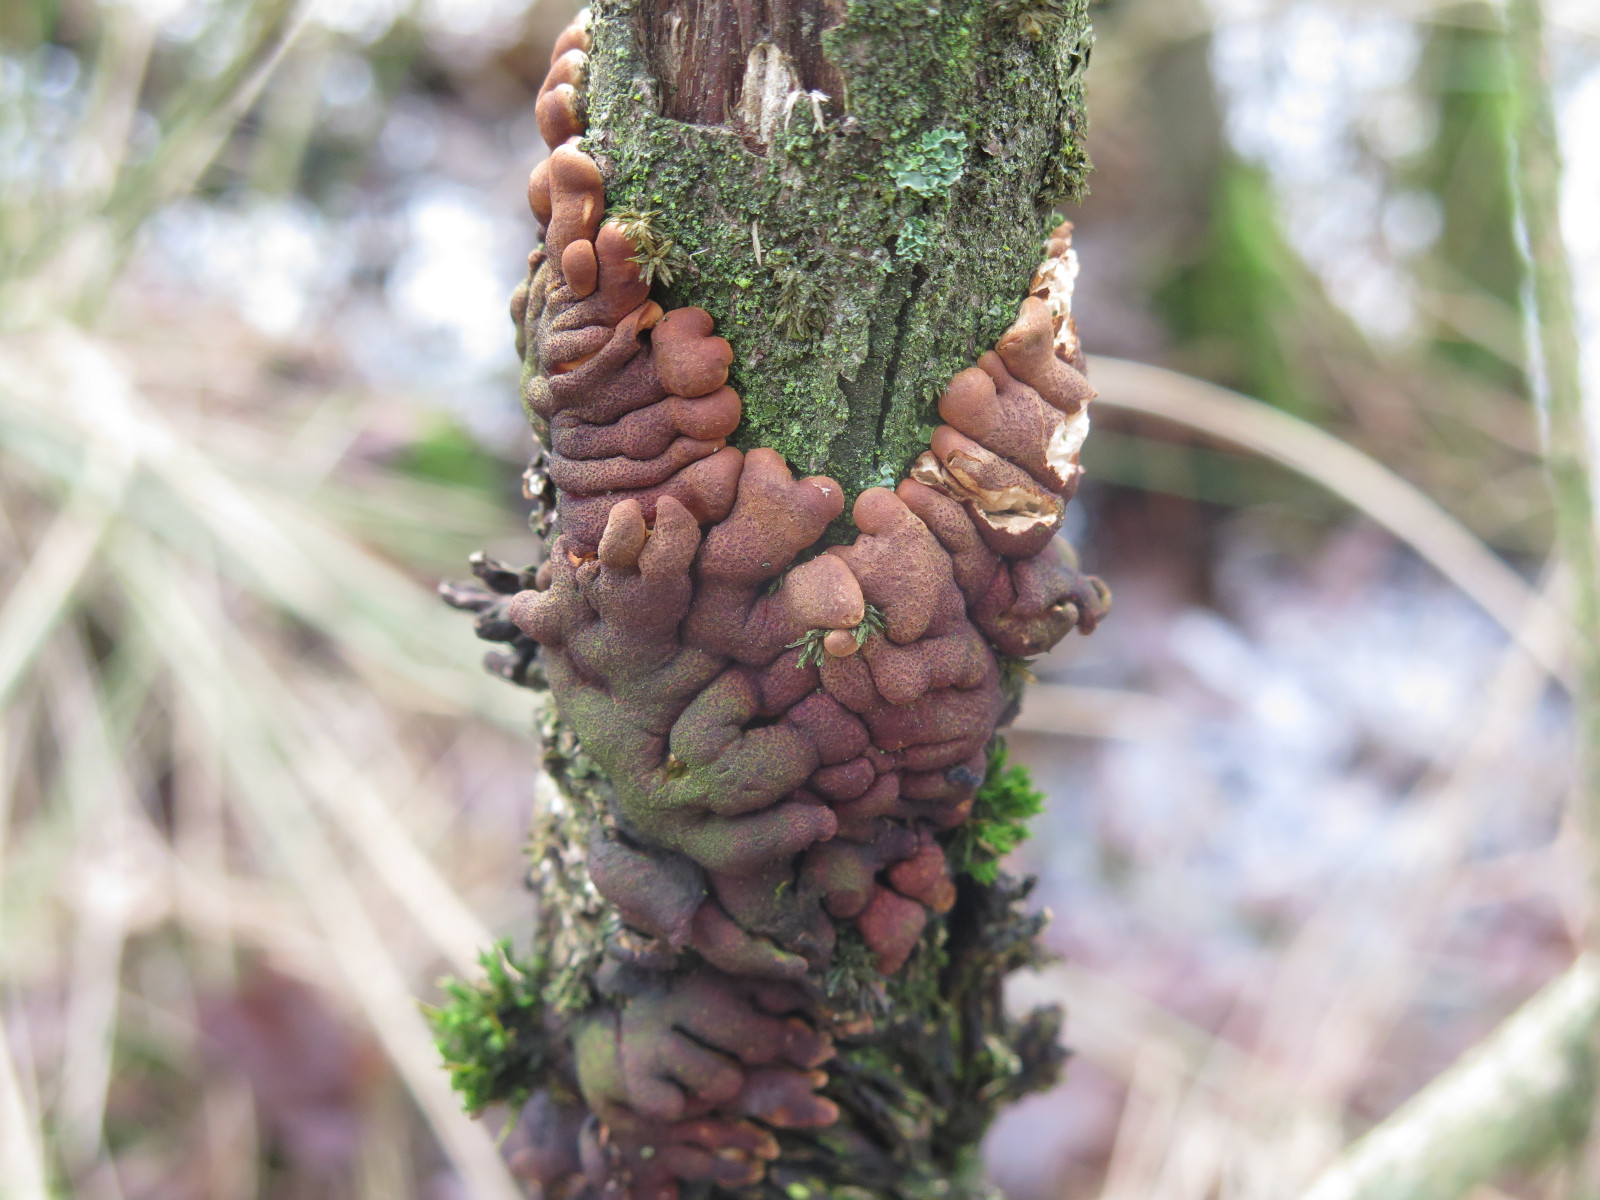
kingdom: Fungi
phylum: Ascomycota
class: Sordariomycetes
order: Hypocreales
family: Hypocreaceae
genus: Hypocreopsis
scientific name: Hypocreopsis lichenoides
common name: pilfinger
